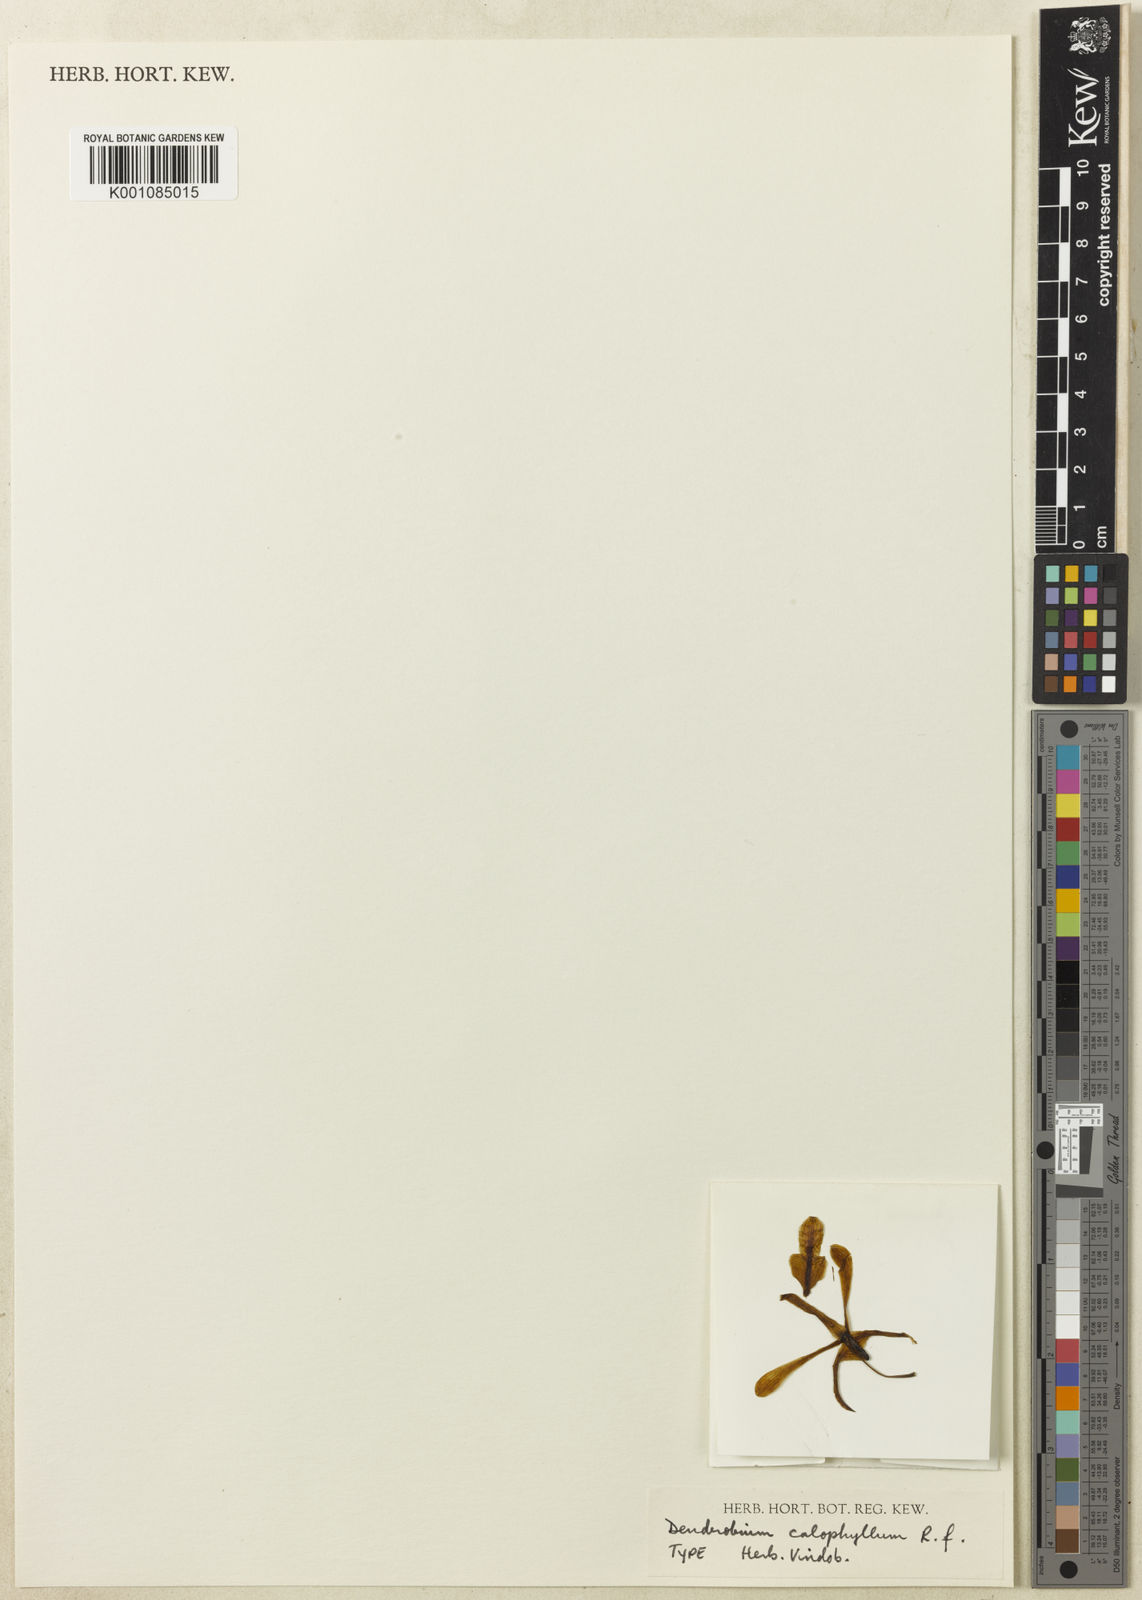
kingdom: Plantae
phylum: Tracheophyta
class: Liliopsida
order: Asparagales
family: Orchidaceae
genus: Dendrobium
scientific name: Dendrobium calophyllum
